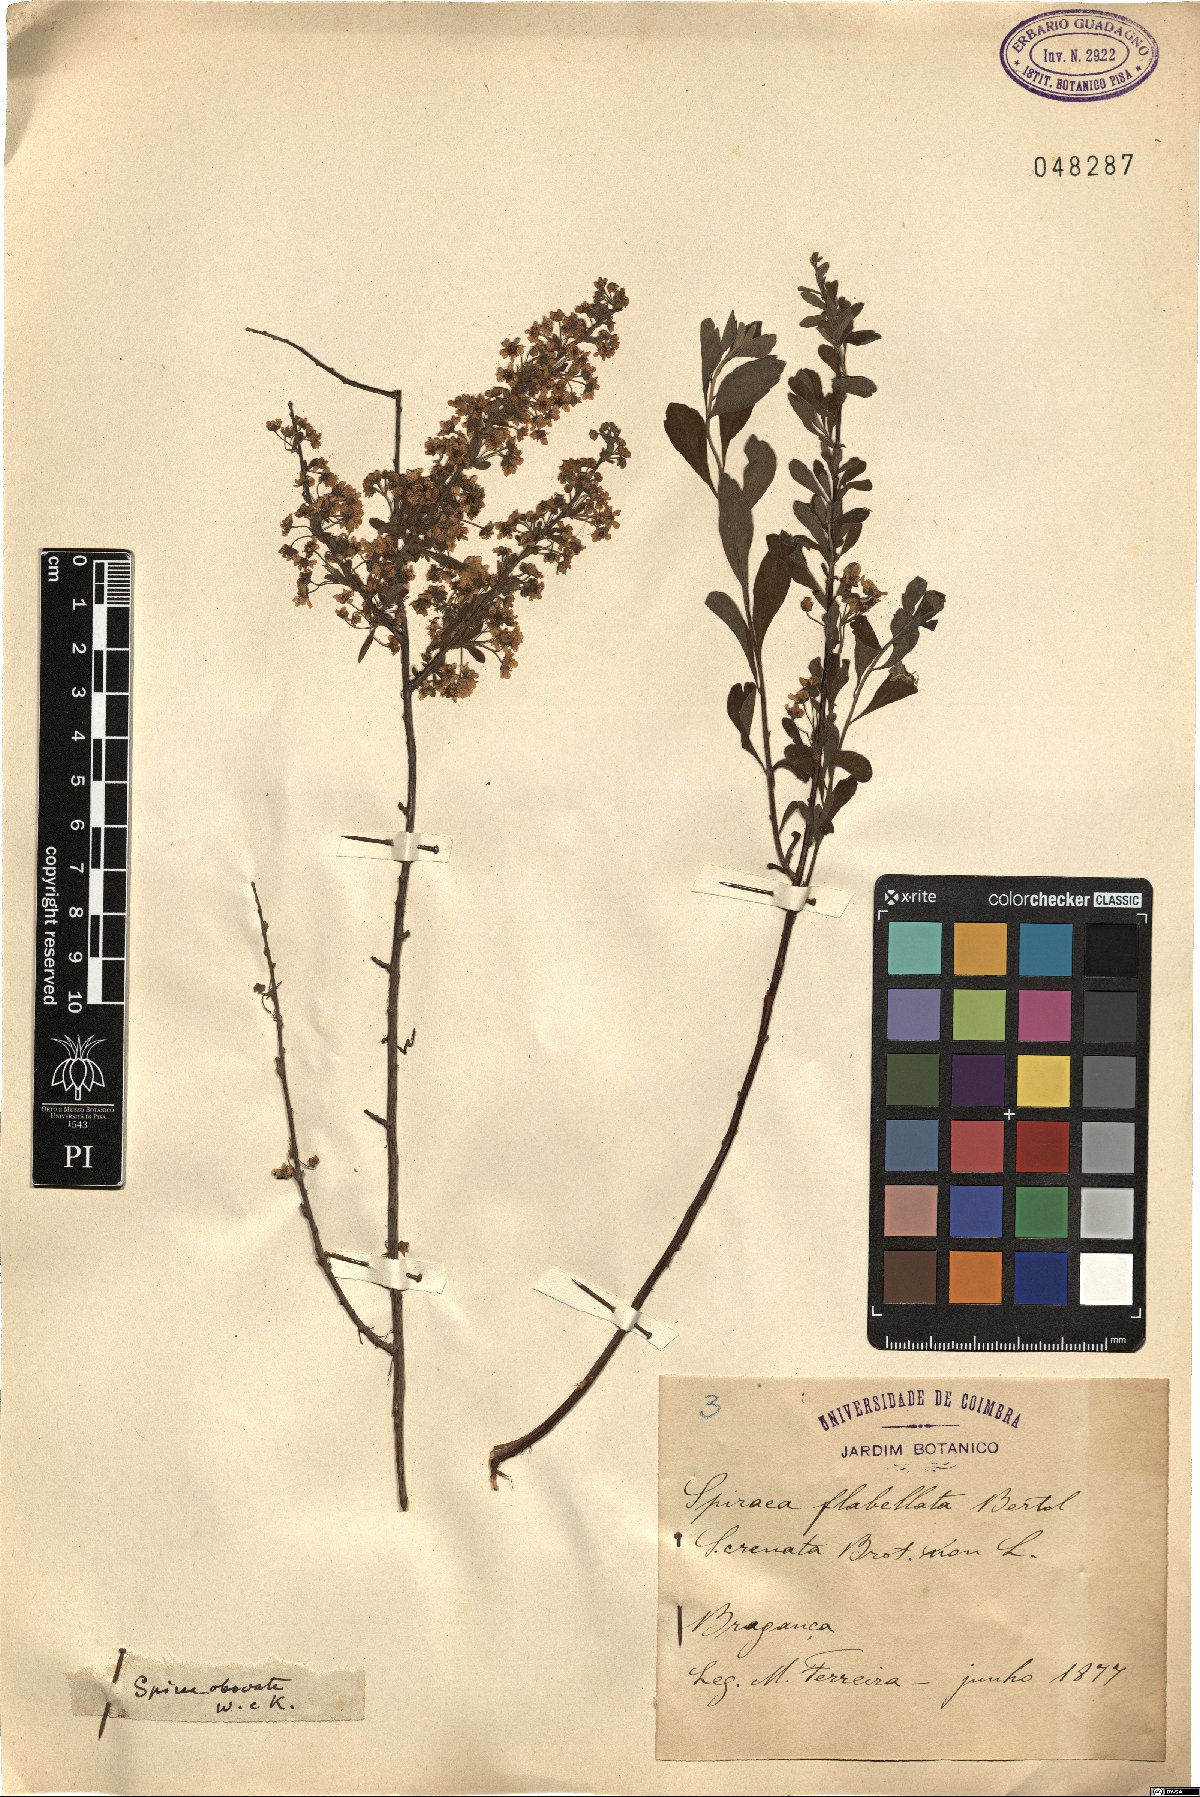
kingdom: Plantae
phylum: Tracheophyta
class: Magnoliopsida
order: Rosales
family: Rosaceae
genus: Spiraea
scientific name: Spiraea hypericifolia
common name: Iberian spirea
